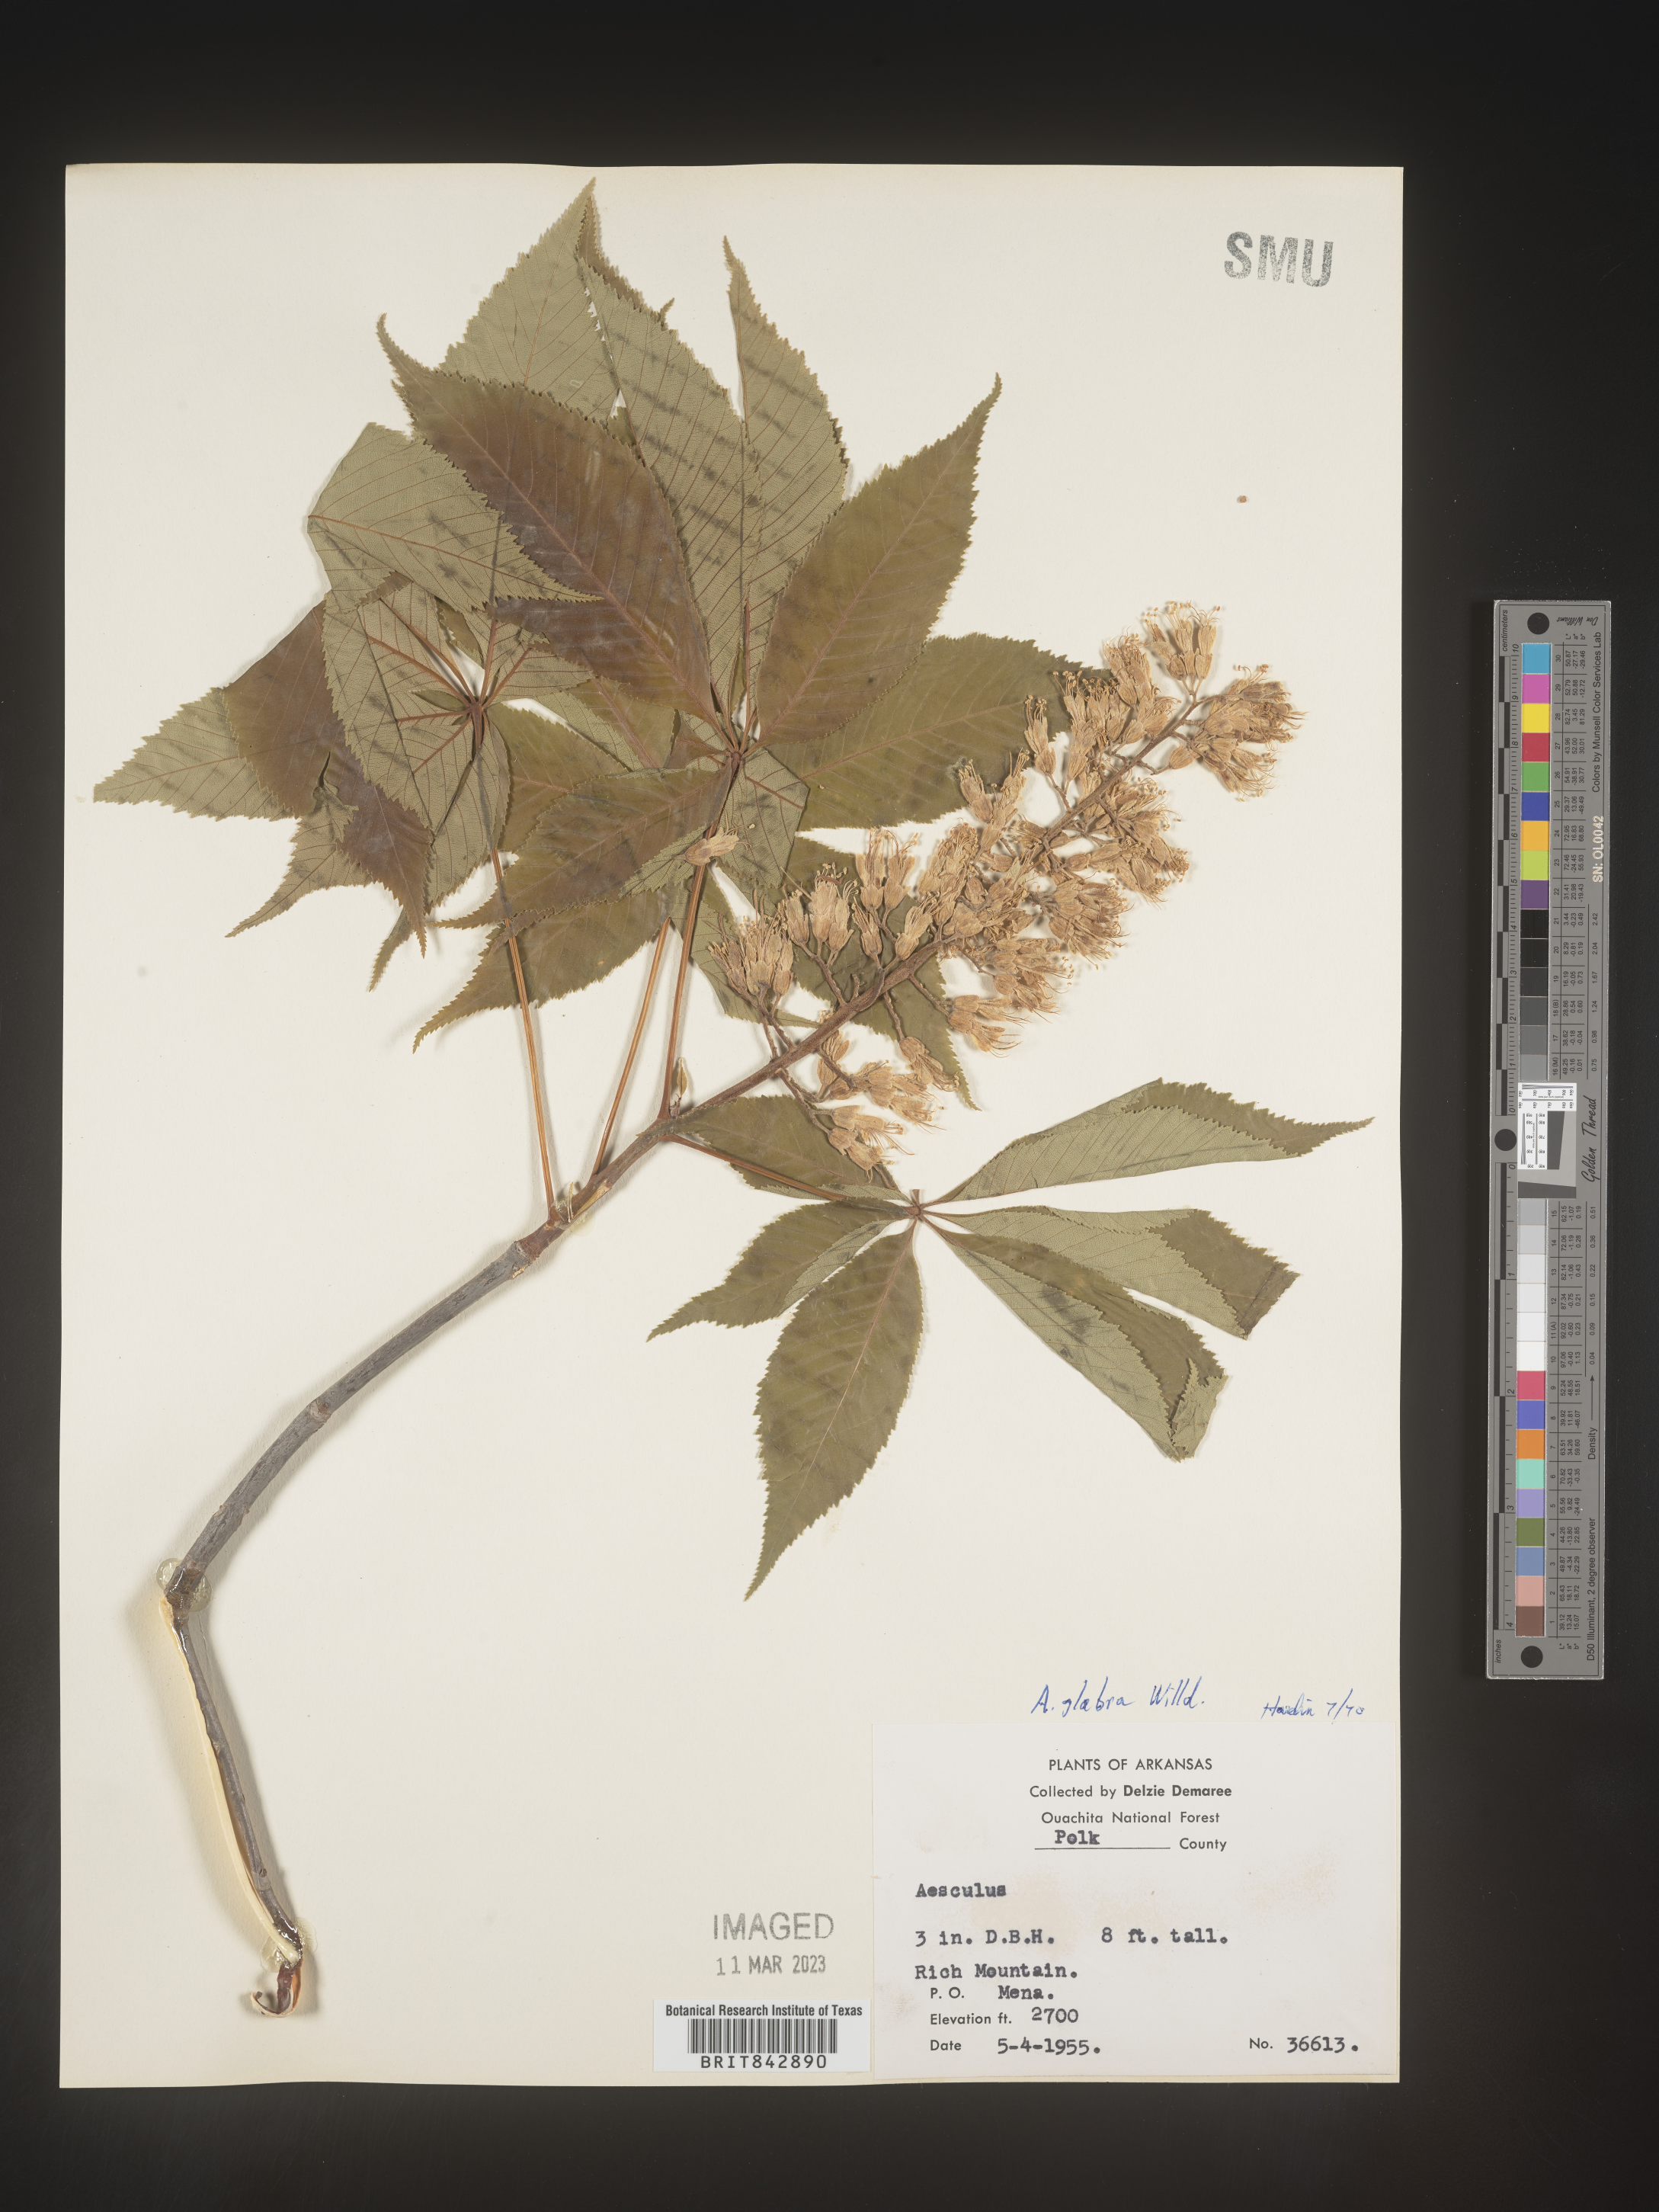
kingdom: Plantae
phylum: Tracheophyta
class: Magnoliopsida
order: Sapindales
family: Sapindaceae
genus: Aesculus
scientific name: Aesculus glabra
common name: Ohio buckeye
